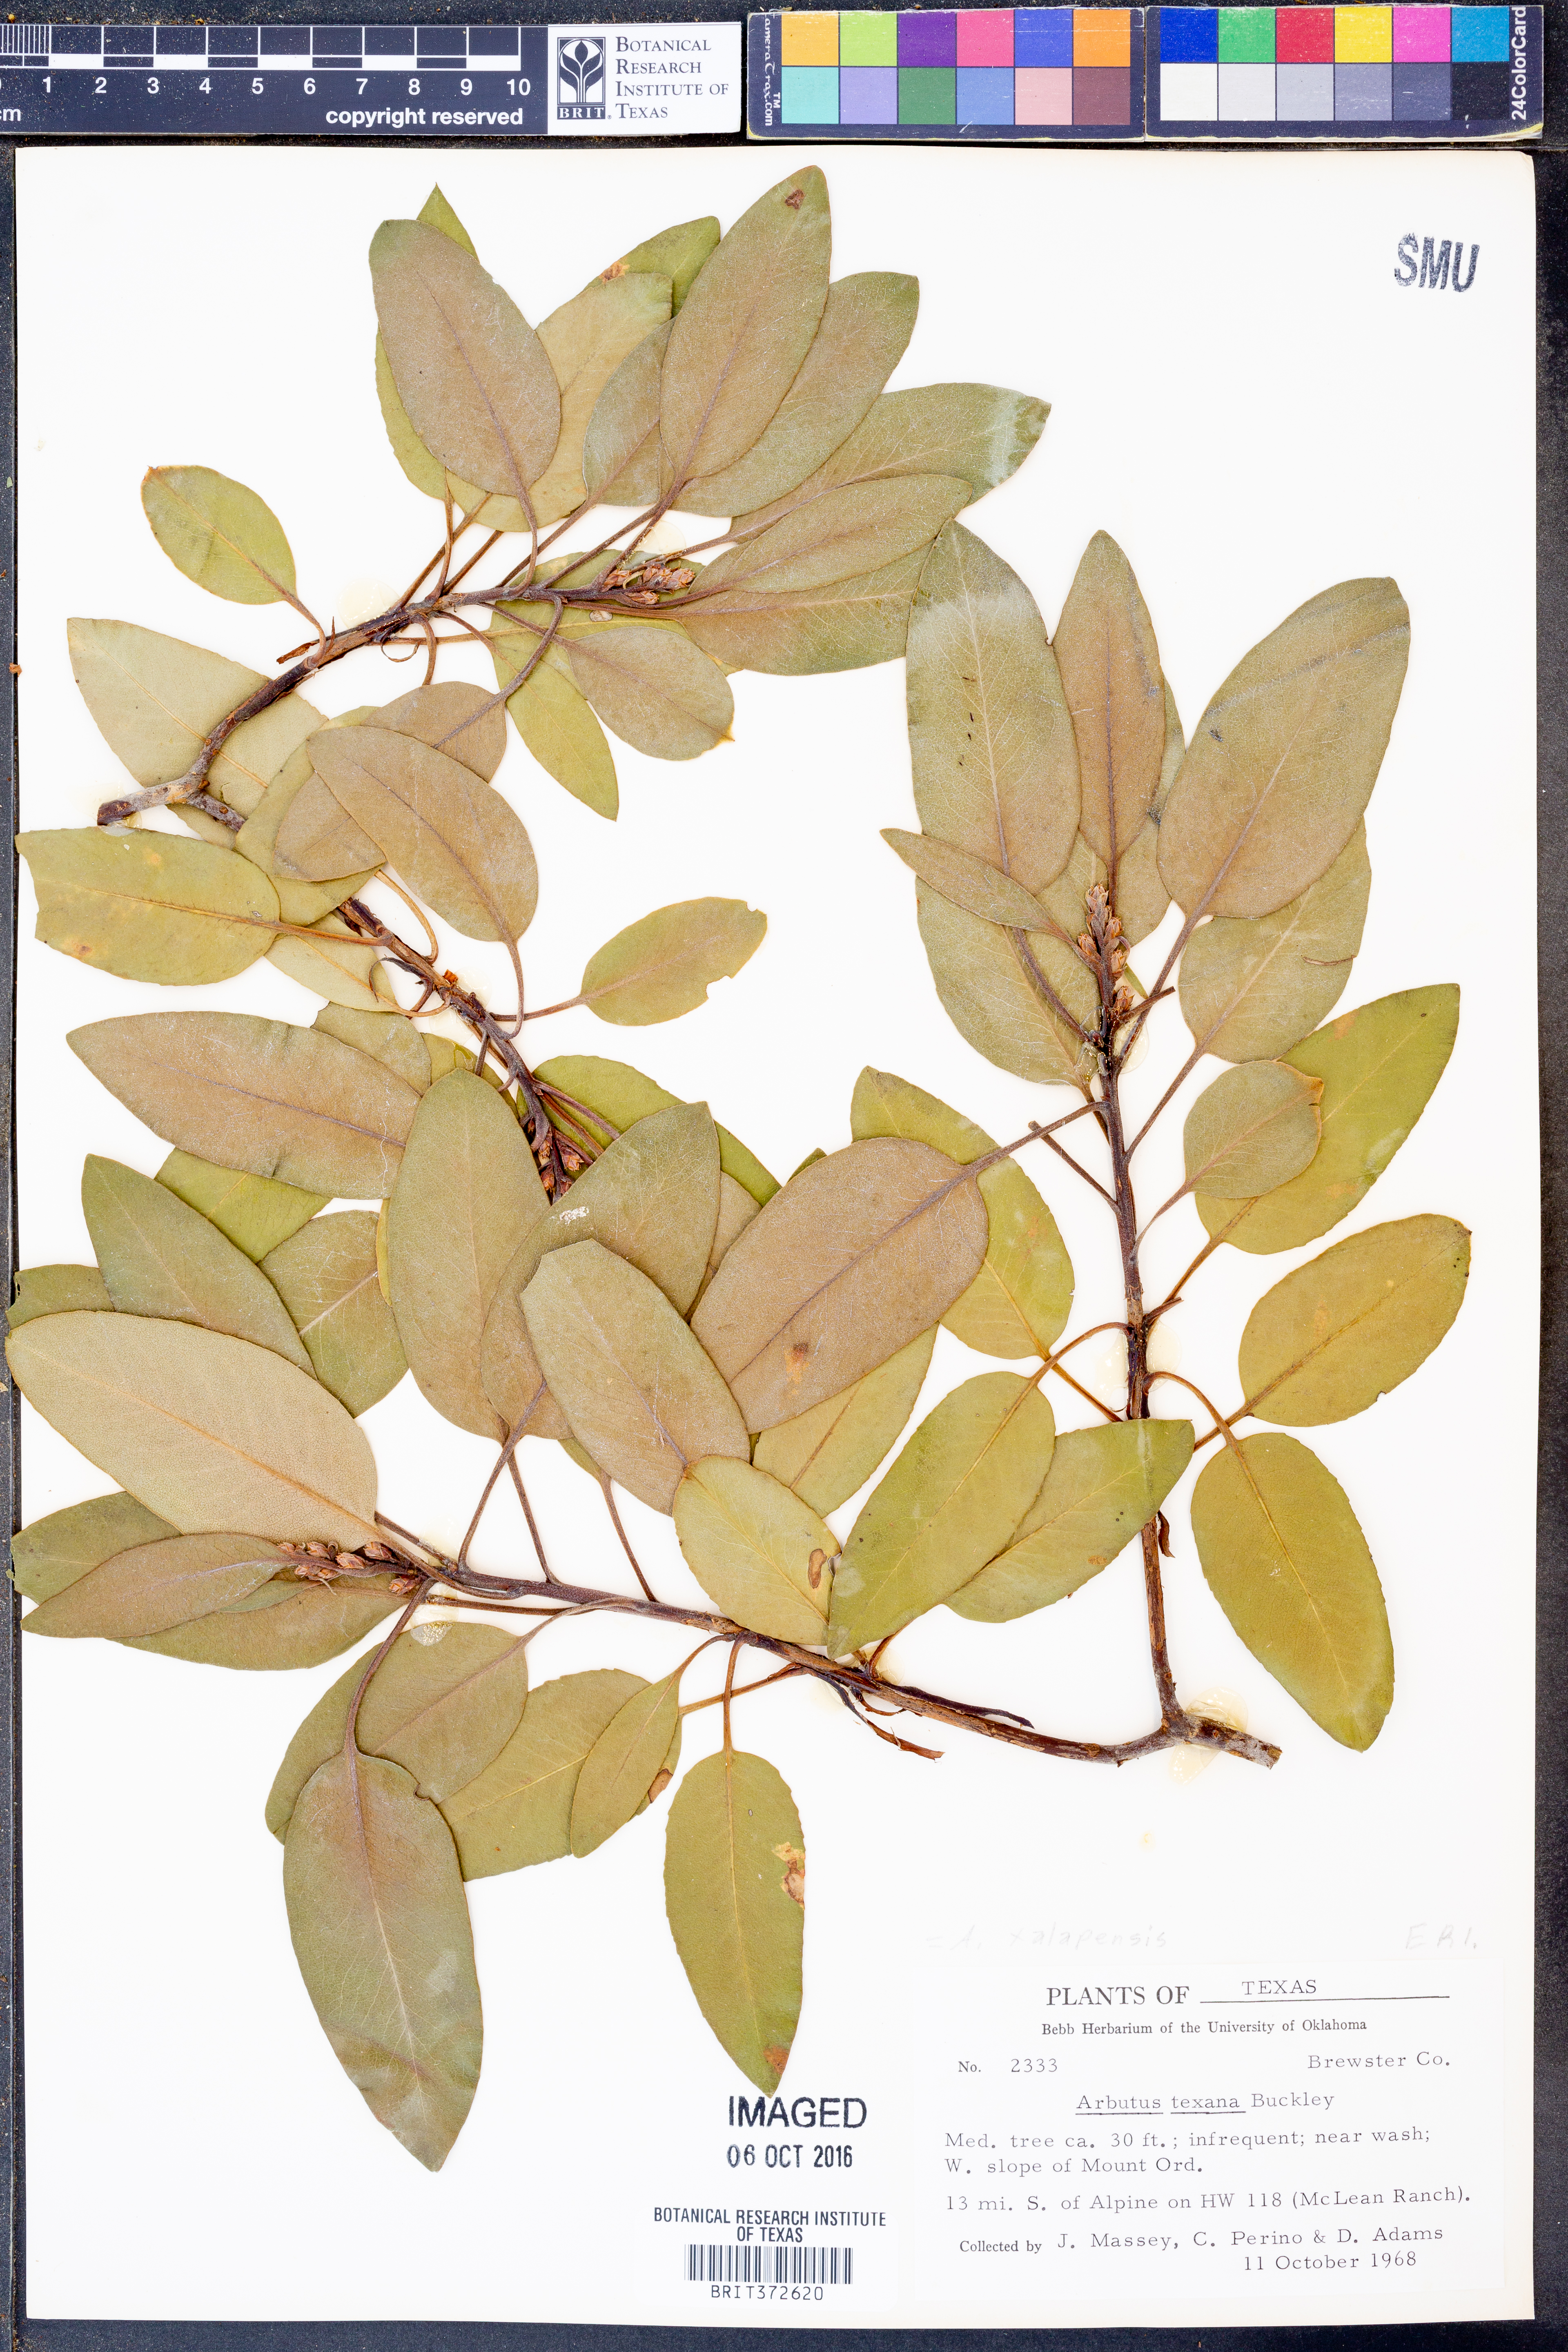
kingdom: Plantae
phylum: Tracheophyta
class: Magnoliopsida
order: Ericales
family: Ericaceae
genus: Arbutus
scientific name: Arbutus xalapensis
